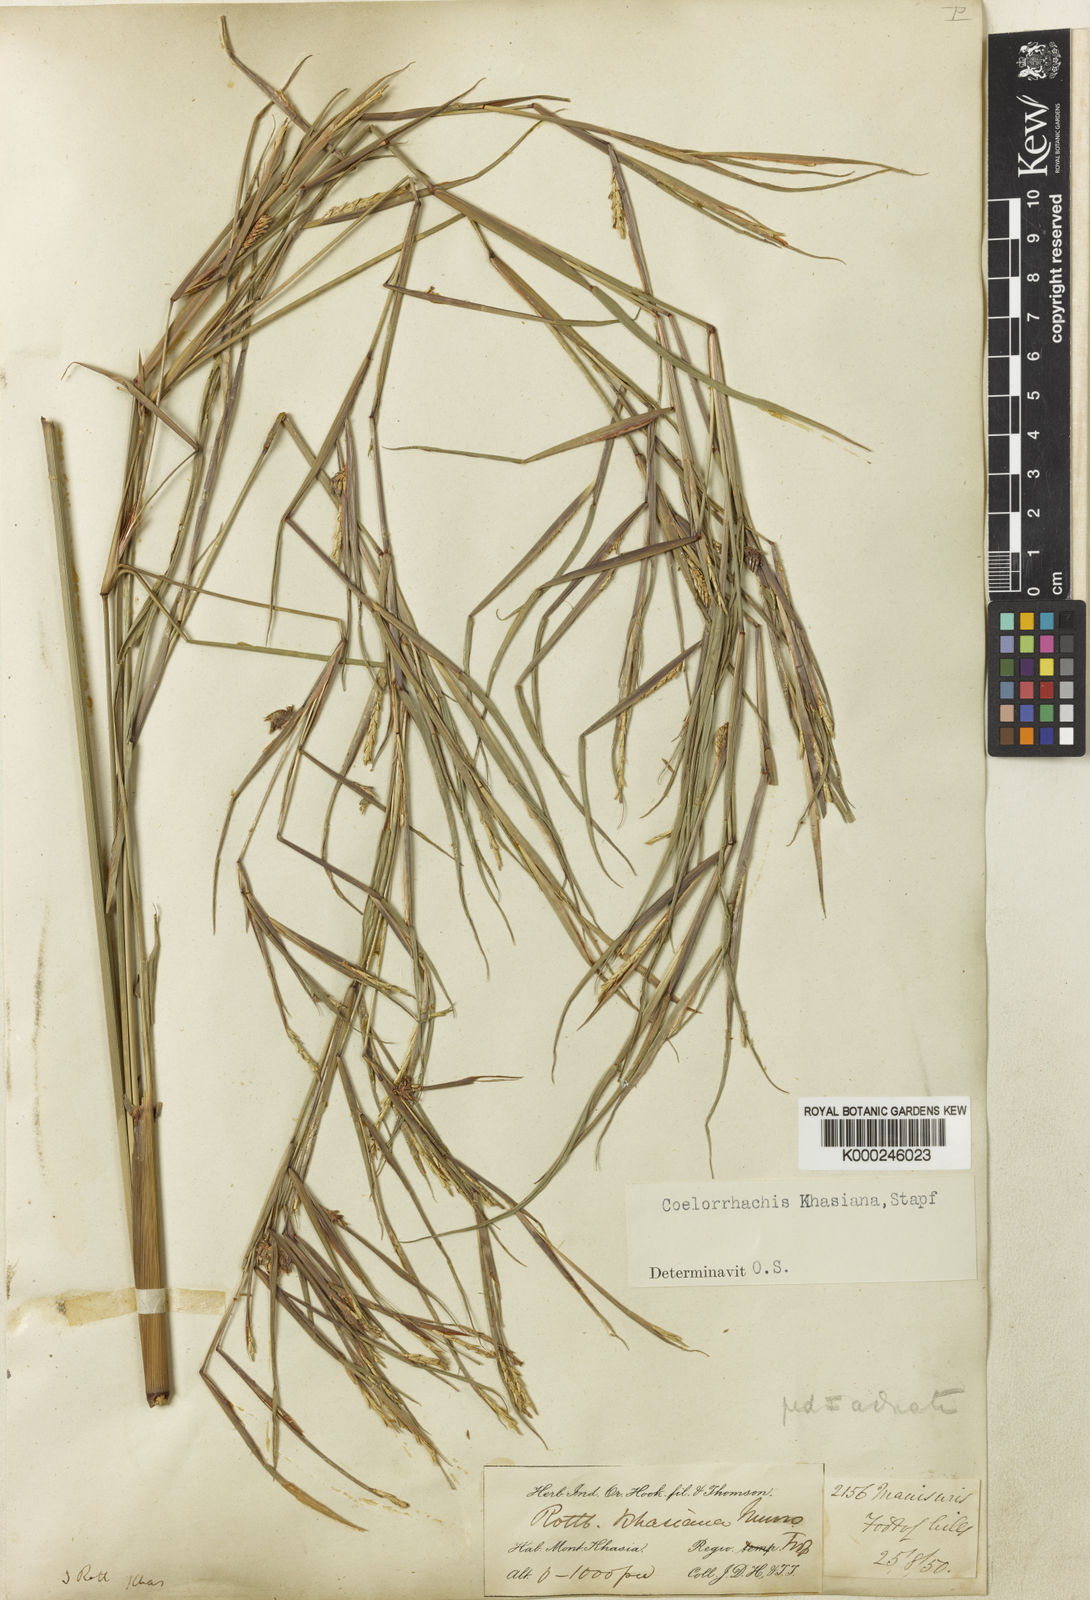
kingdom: Plantae
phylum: Tracheophyta
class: Liliopsida
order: Poales
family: Poaceae
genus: Rottboellia
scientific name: Rottboellia striata
